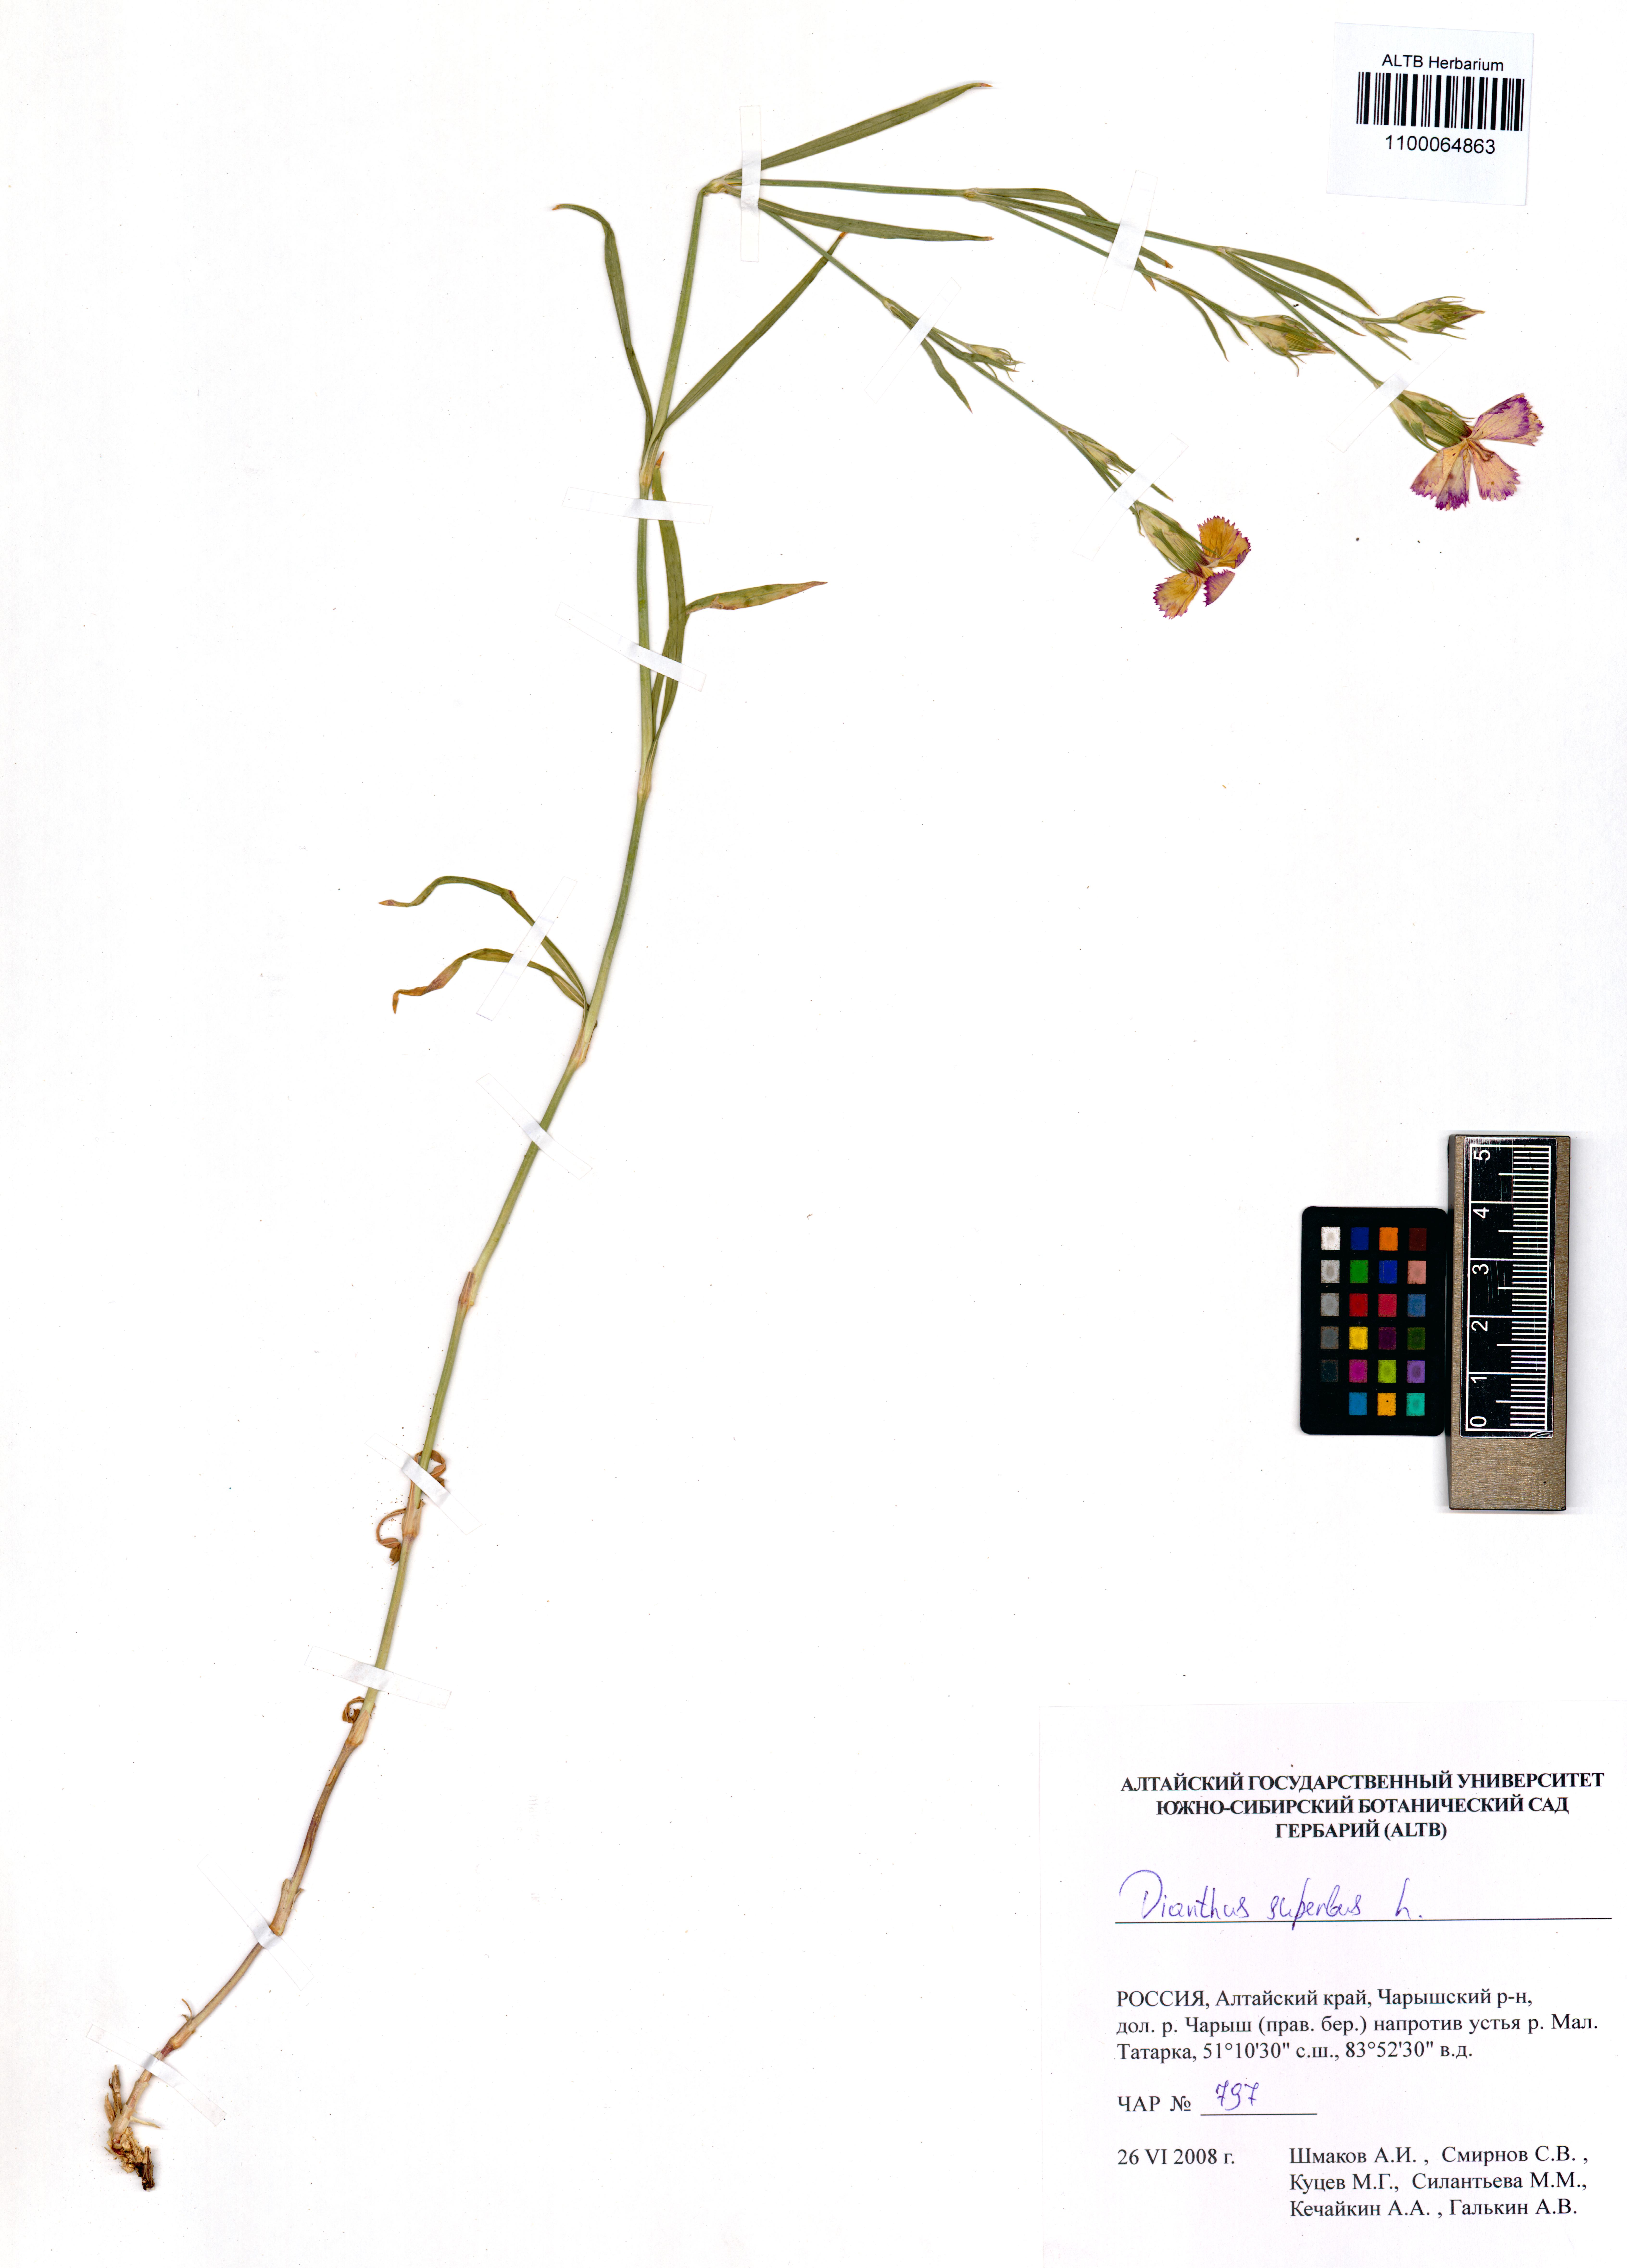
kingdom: Plantae
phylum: Tracheophyta
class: Magnoliopsida
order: Caryophyllales
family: Caryophyllaceae
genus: Dianthus
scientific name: Dianthus superbus
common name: Fringed pink
